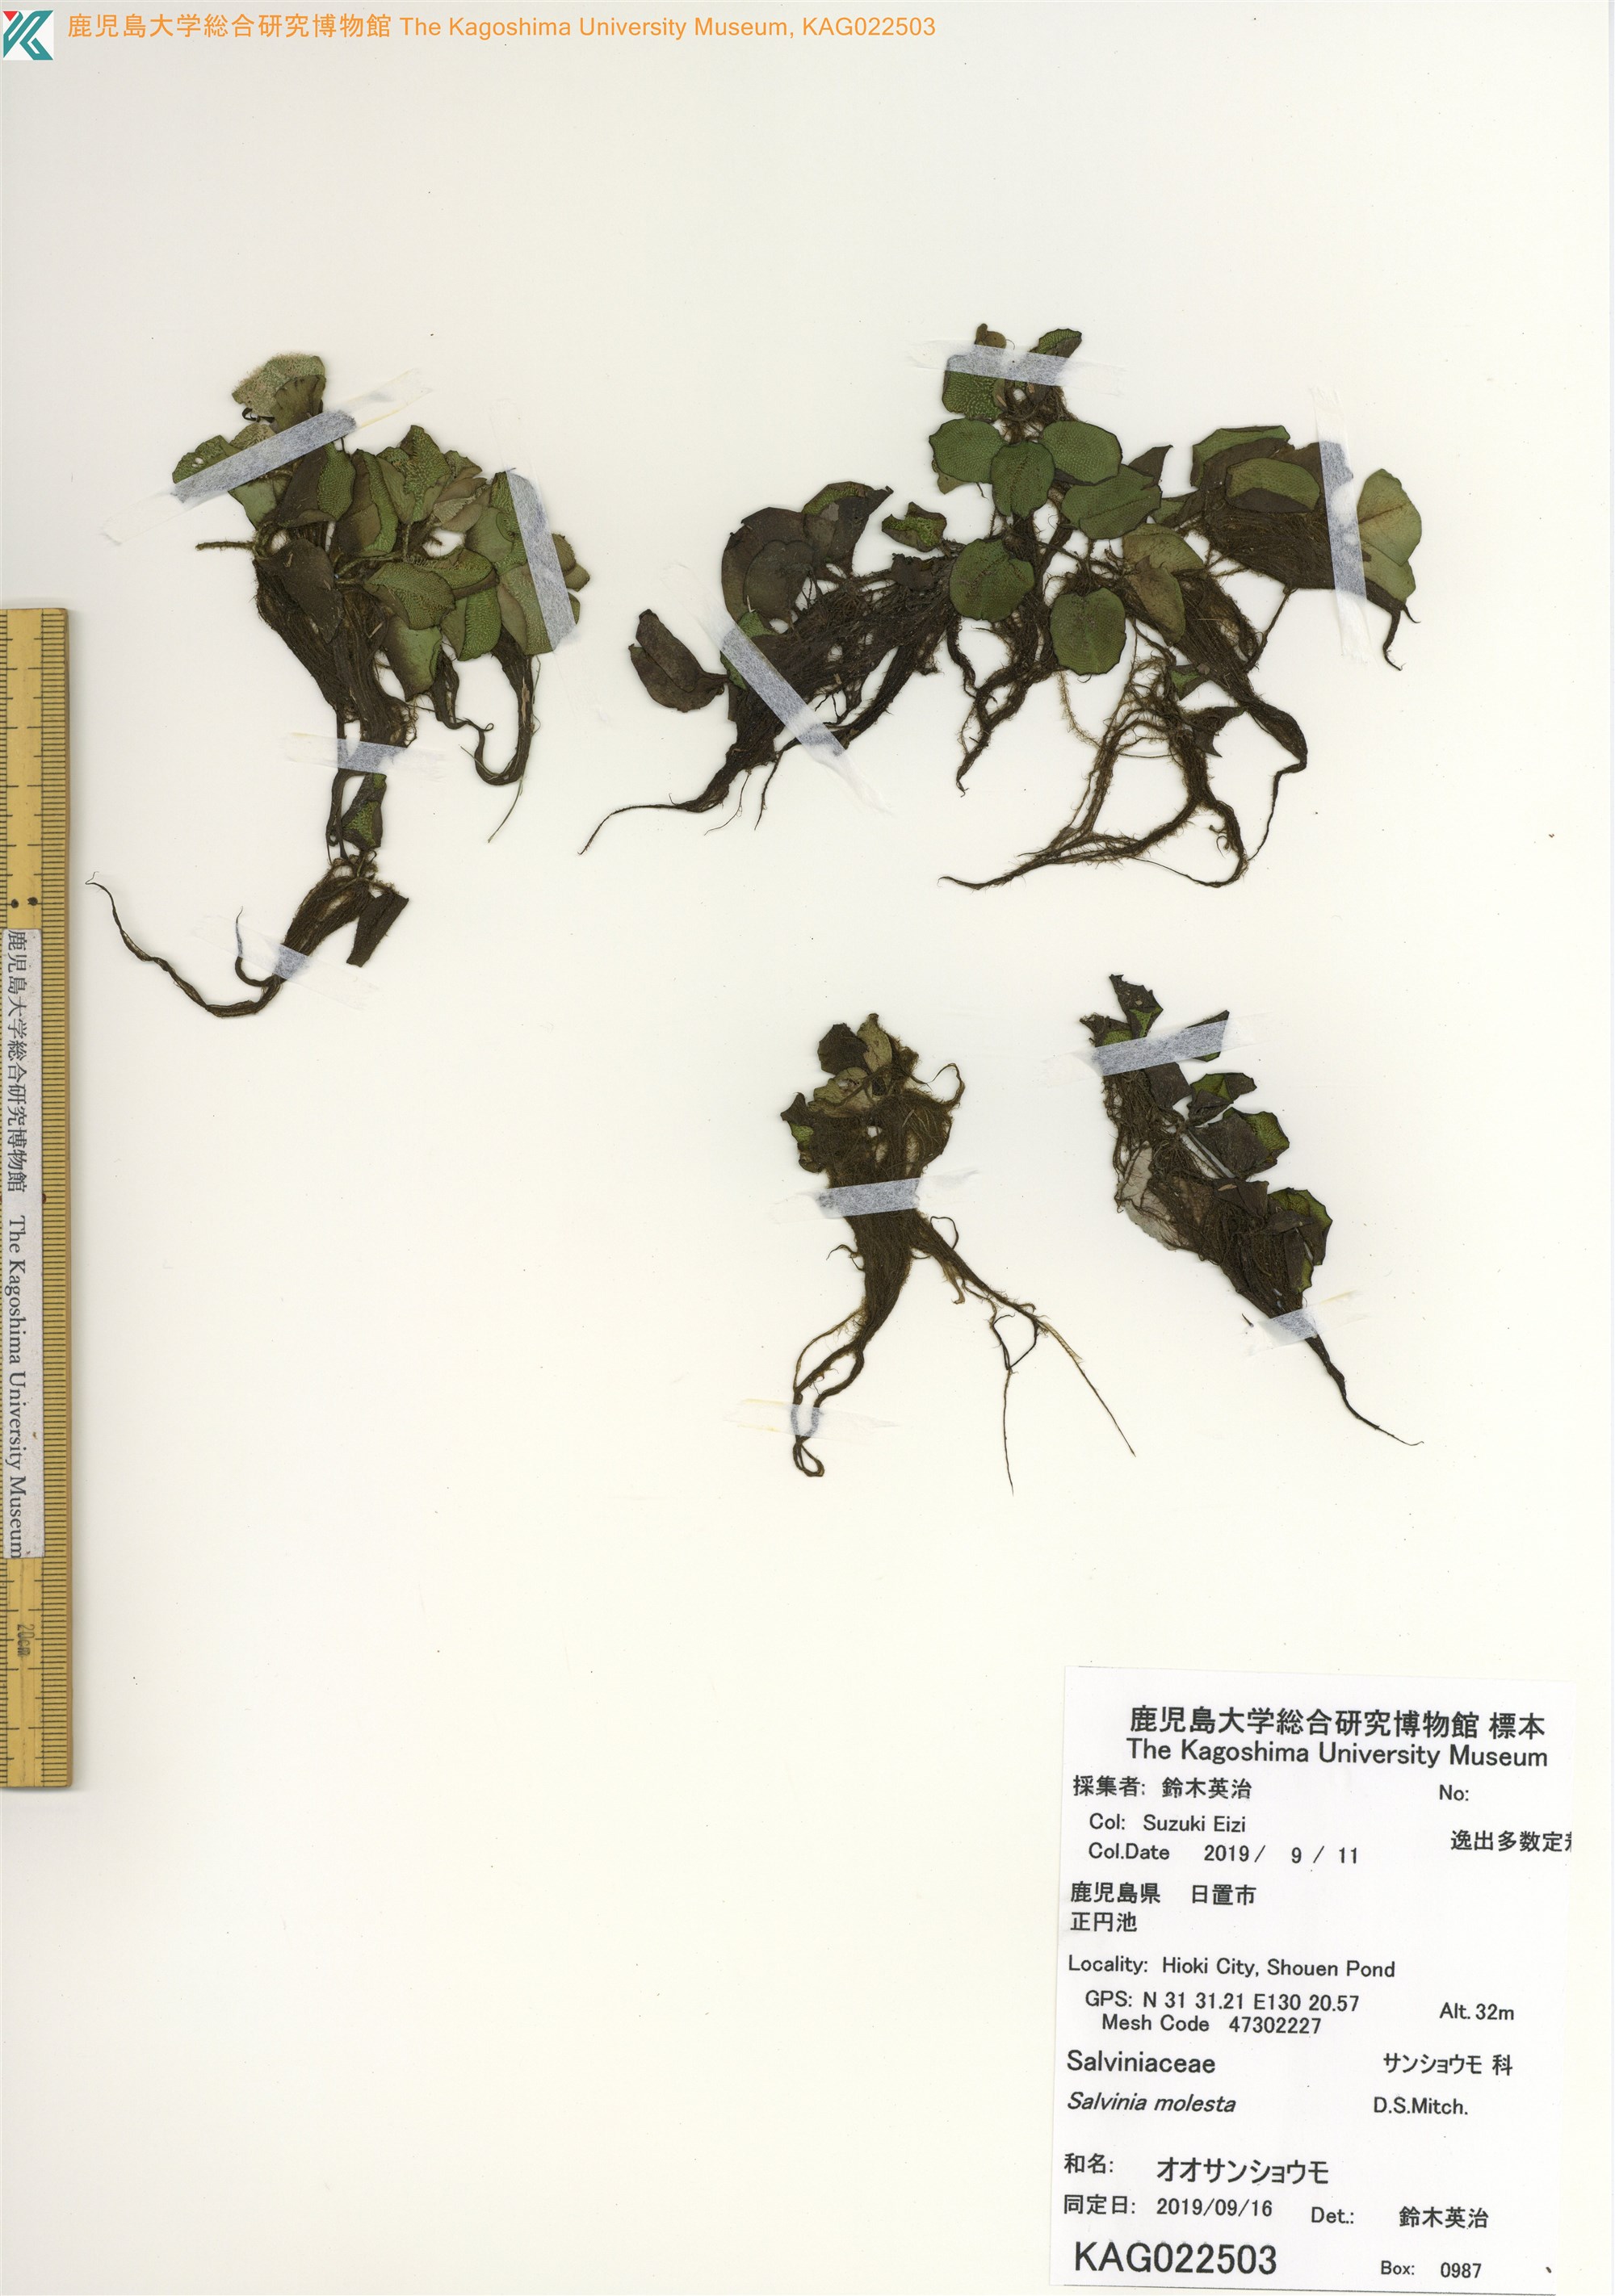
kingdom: Plantae
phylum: Tracheophyta
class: Polypodiopsida
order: Salviniales
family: Salviniaceae
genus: Salvinia
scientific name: Salvinia molesta
